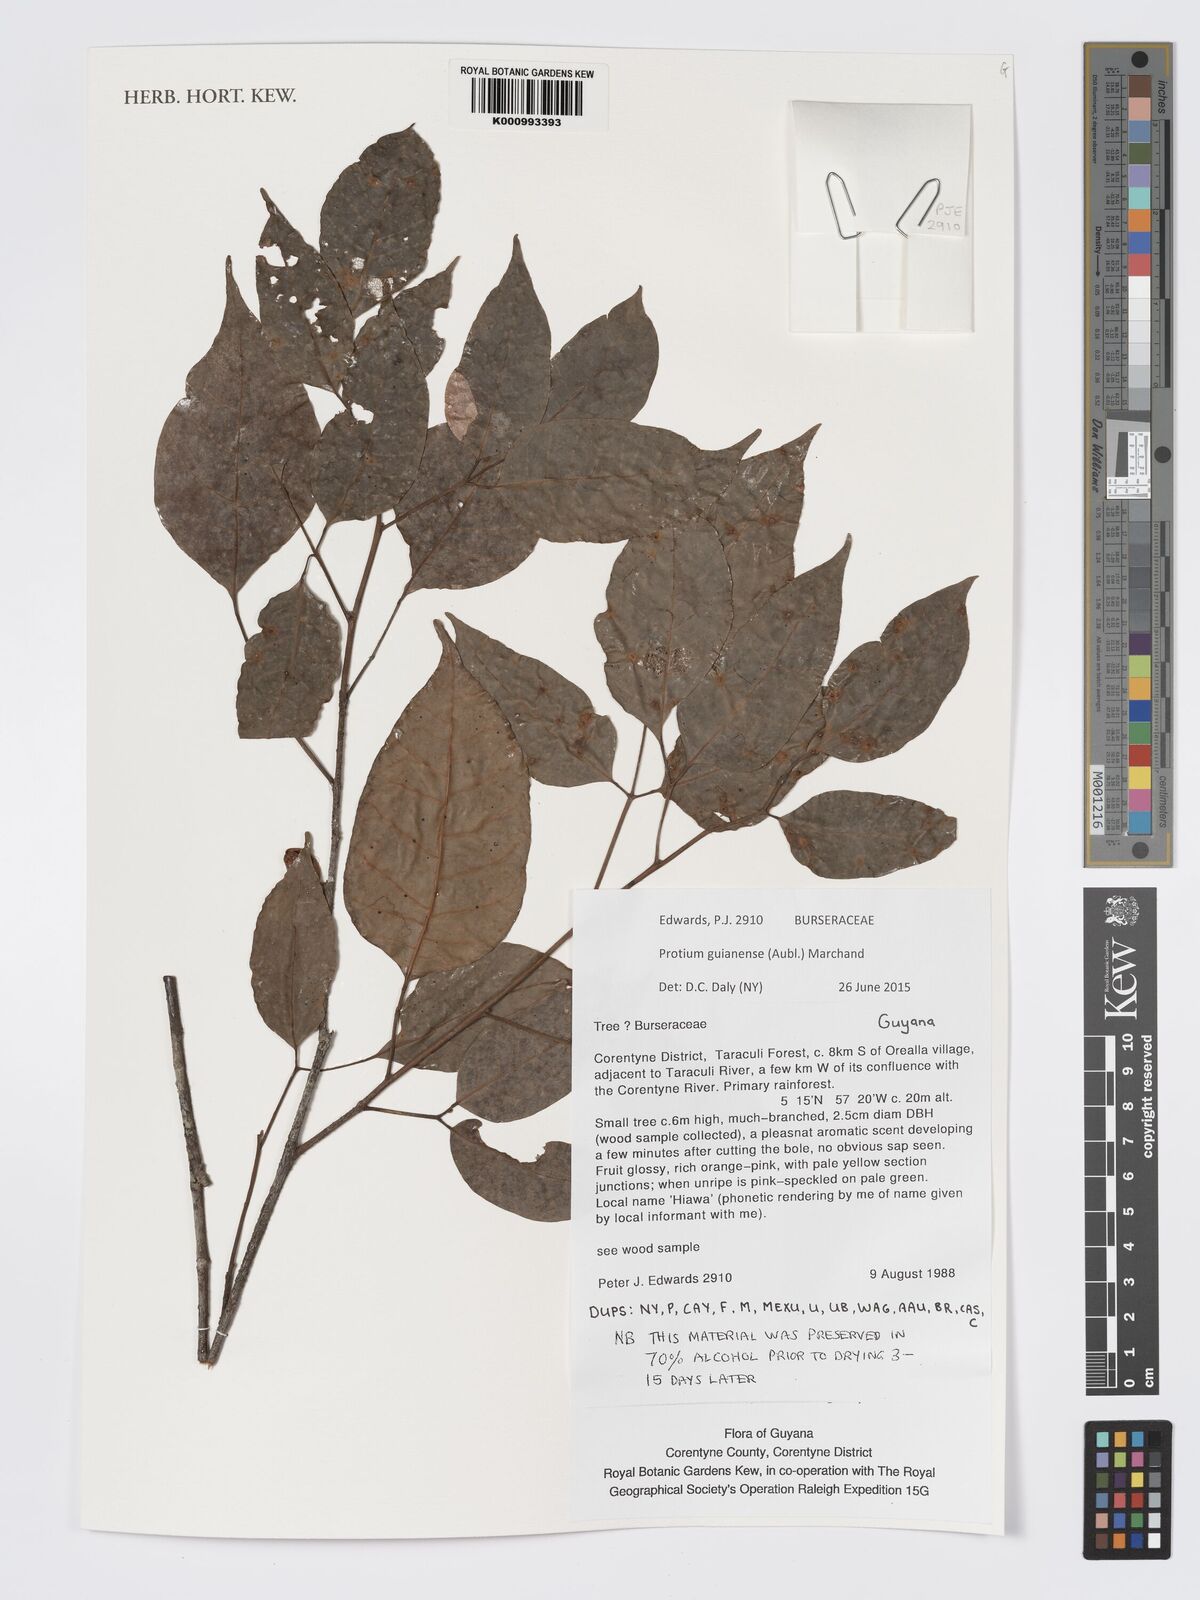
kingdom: Plantae
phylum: Tracheophyta
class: Magnoliopsida
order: Sapindales
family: Burseraceae
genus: Protium
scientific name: Protium guianense
